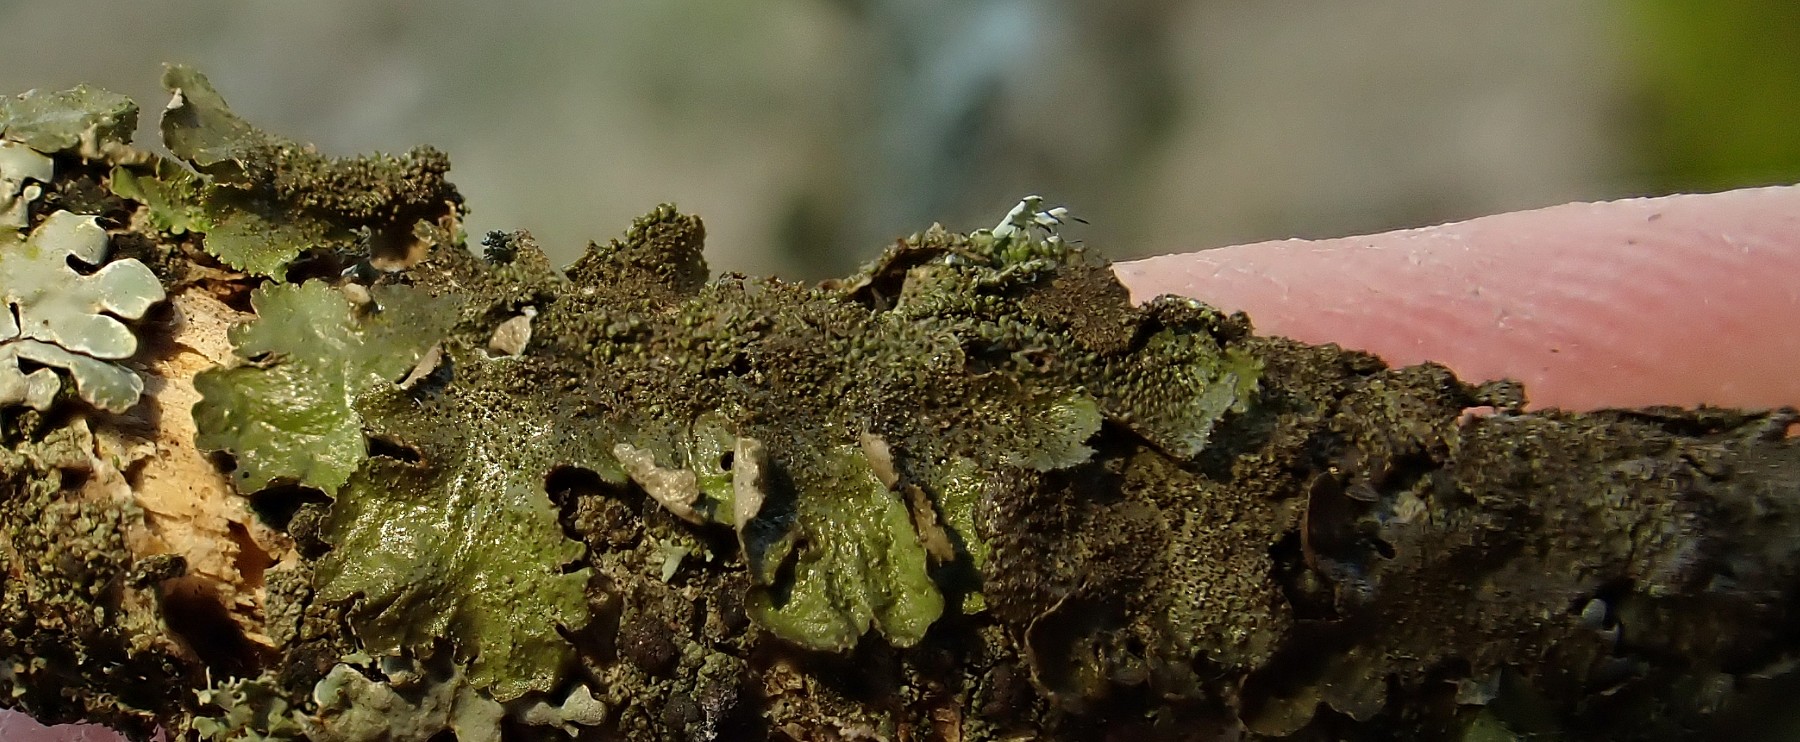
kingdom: Fungi
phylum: Ascomycota
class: Lecanoromycetes
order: Lecanorales
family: Parmeliaceae
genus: Melanelixia
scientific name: Melanelixia glabratula
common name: glinsende skållav
